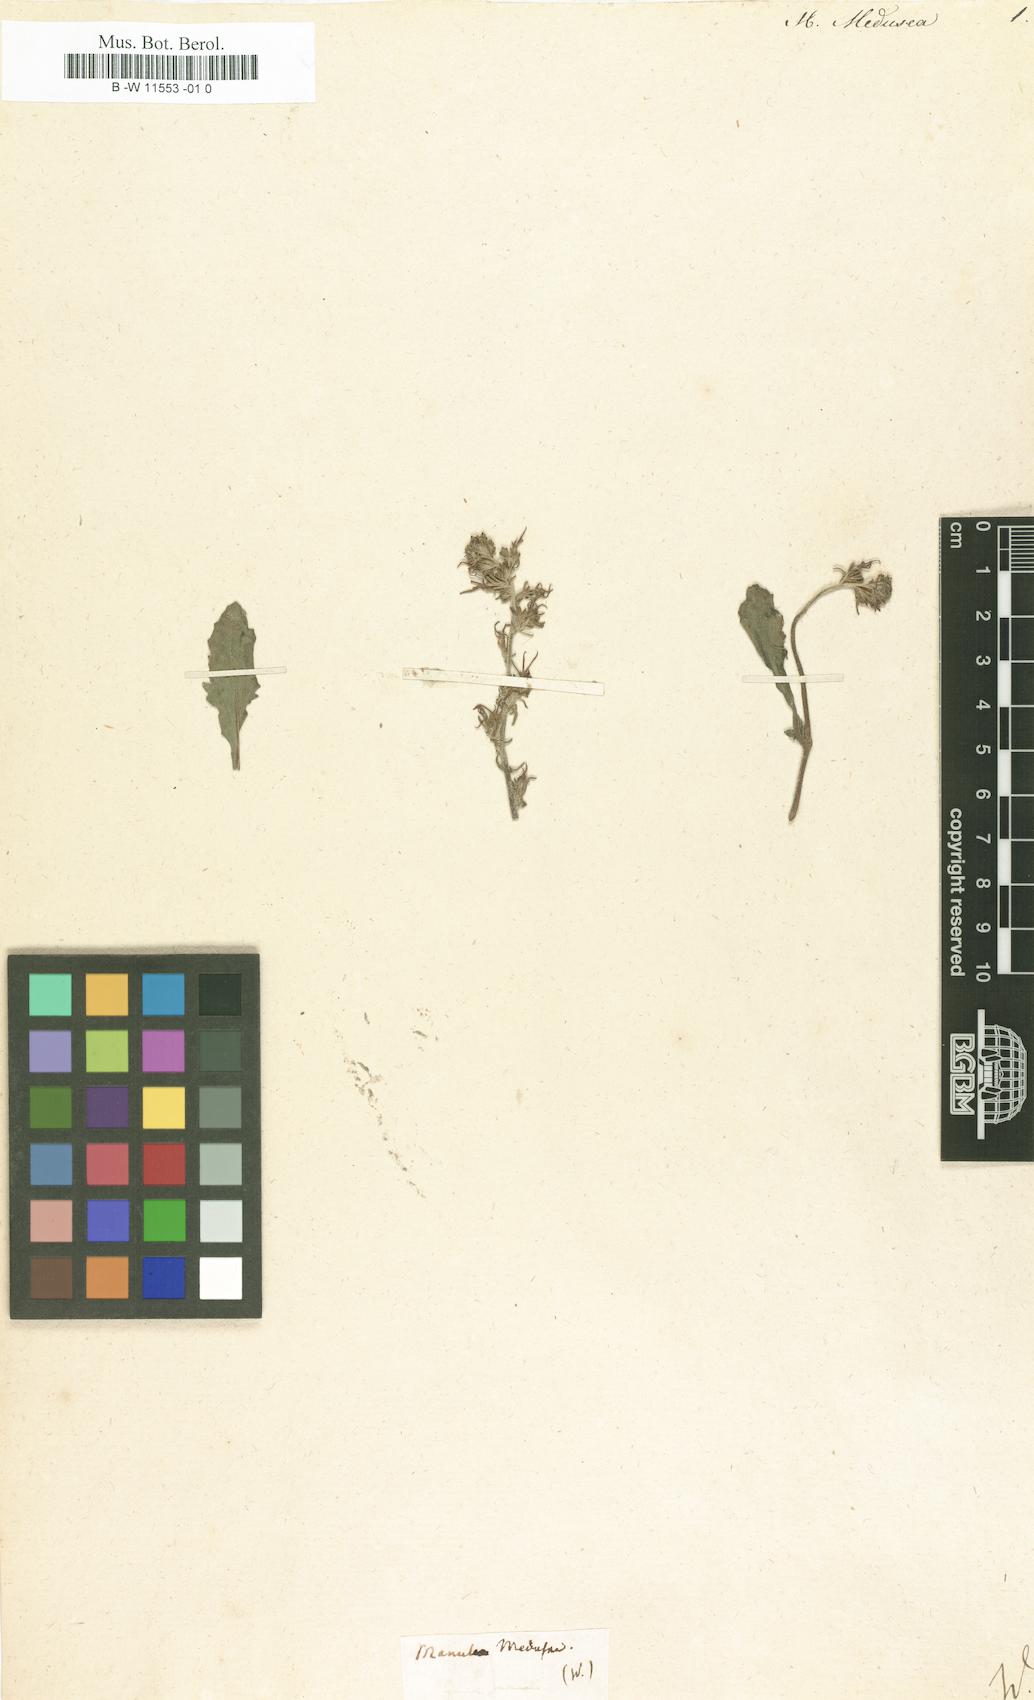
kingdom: Plantae
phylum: Tracheophyta
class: Magnoliopsida
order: Lamiales
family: Scrophulariaceae
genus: Manulea
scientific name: Manulea
